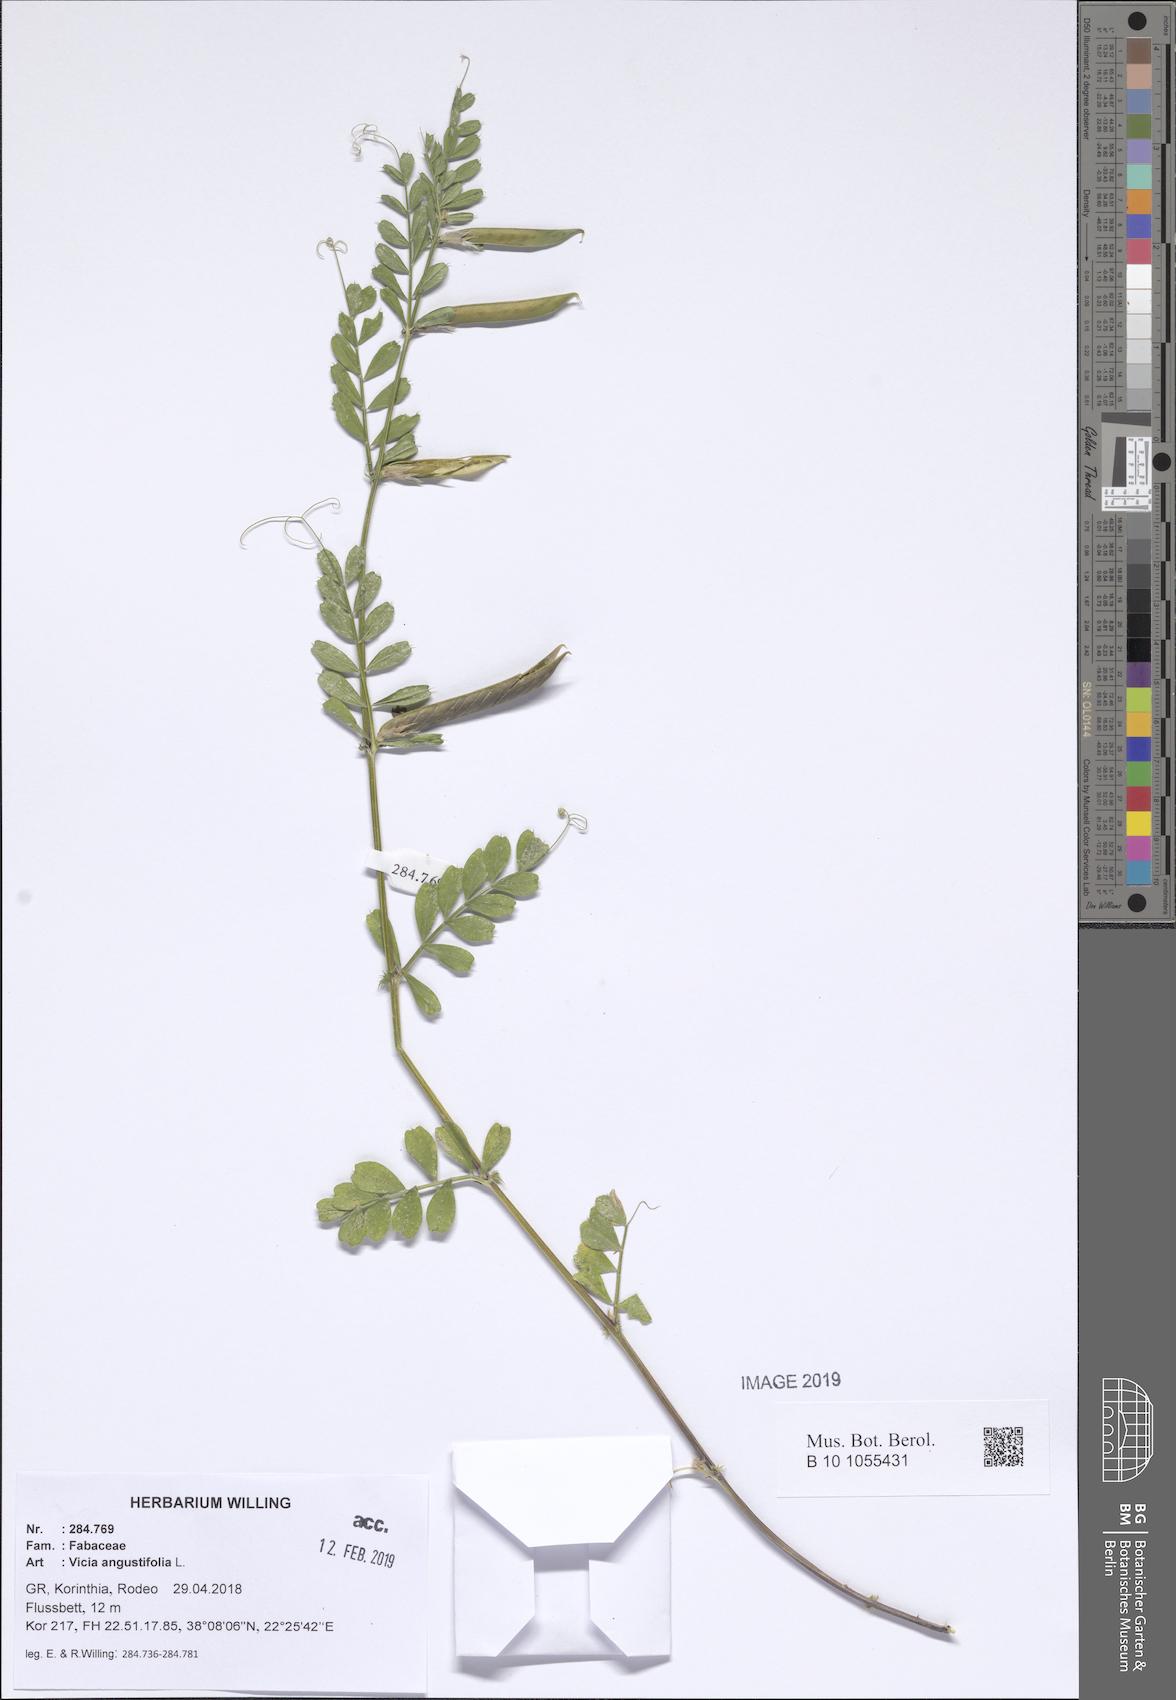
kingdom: Plantae
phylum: Tracheophyta
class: Magnoliopsida
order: Fabales
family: Fabaceae
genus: Vicia
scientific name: Vicia sativa
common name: Garden vetch
